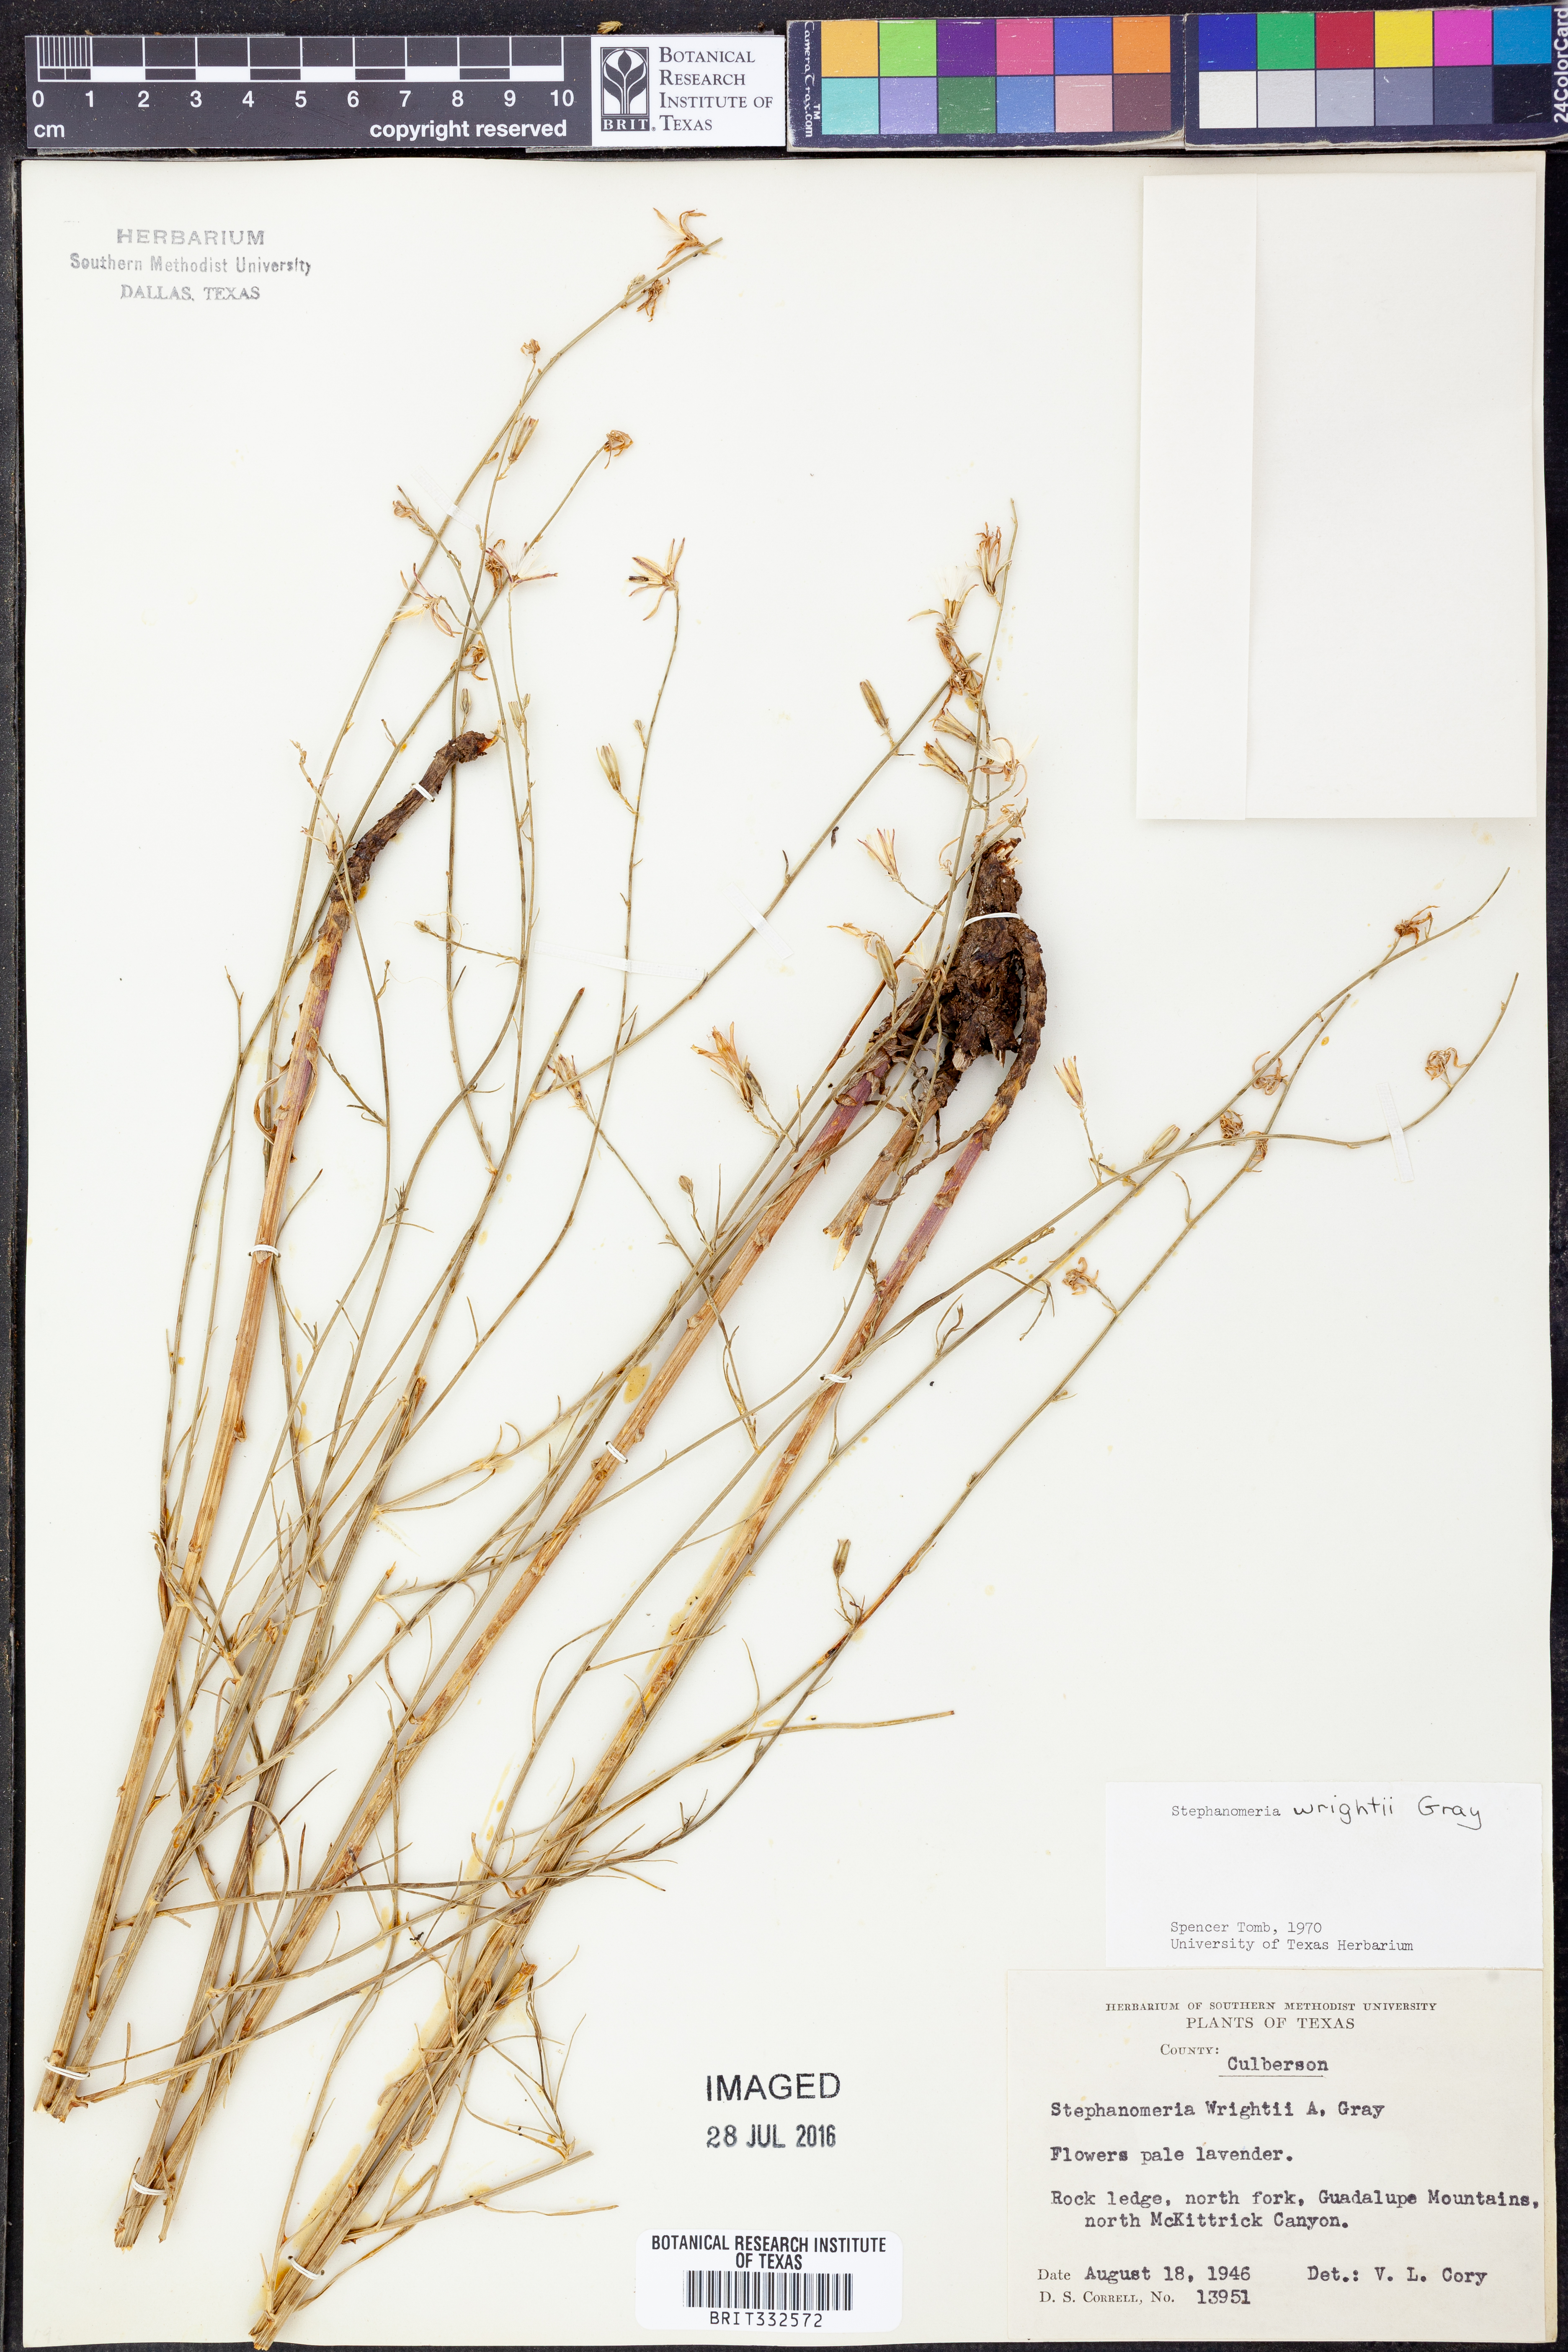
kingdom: Plantae
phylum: Tracheophyta
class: Magnoliopsida
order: Asterales
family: Asteraceae
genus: Stephanomeria
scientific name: Stephanomeria tenuifolia
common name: Slender wirelettuce
